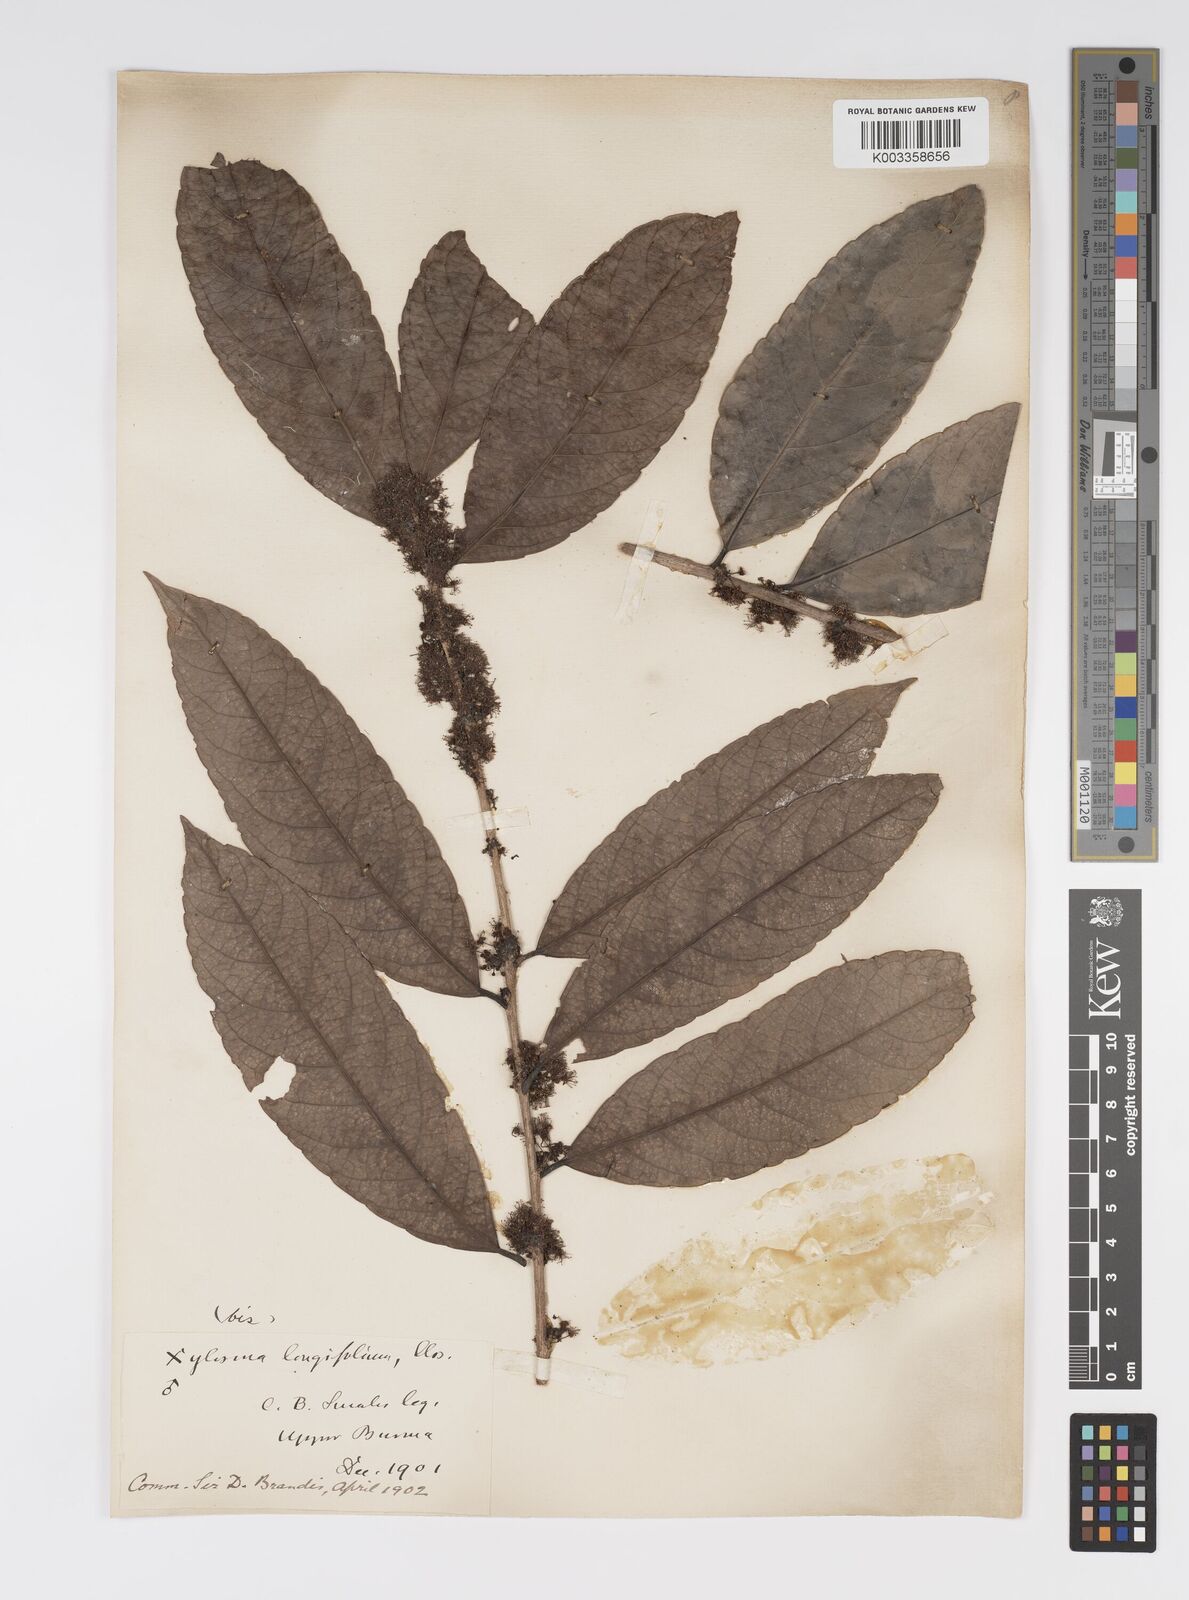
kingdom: Plantae
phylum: Tracheophyta
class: Magnoliopsida
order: Malpighiales
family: Salicaceae
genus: Xylosma
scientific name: Xylosma longifolia
